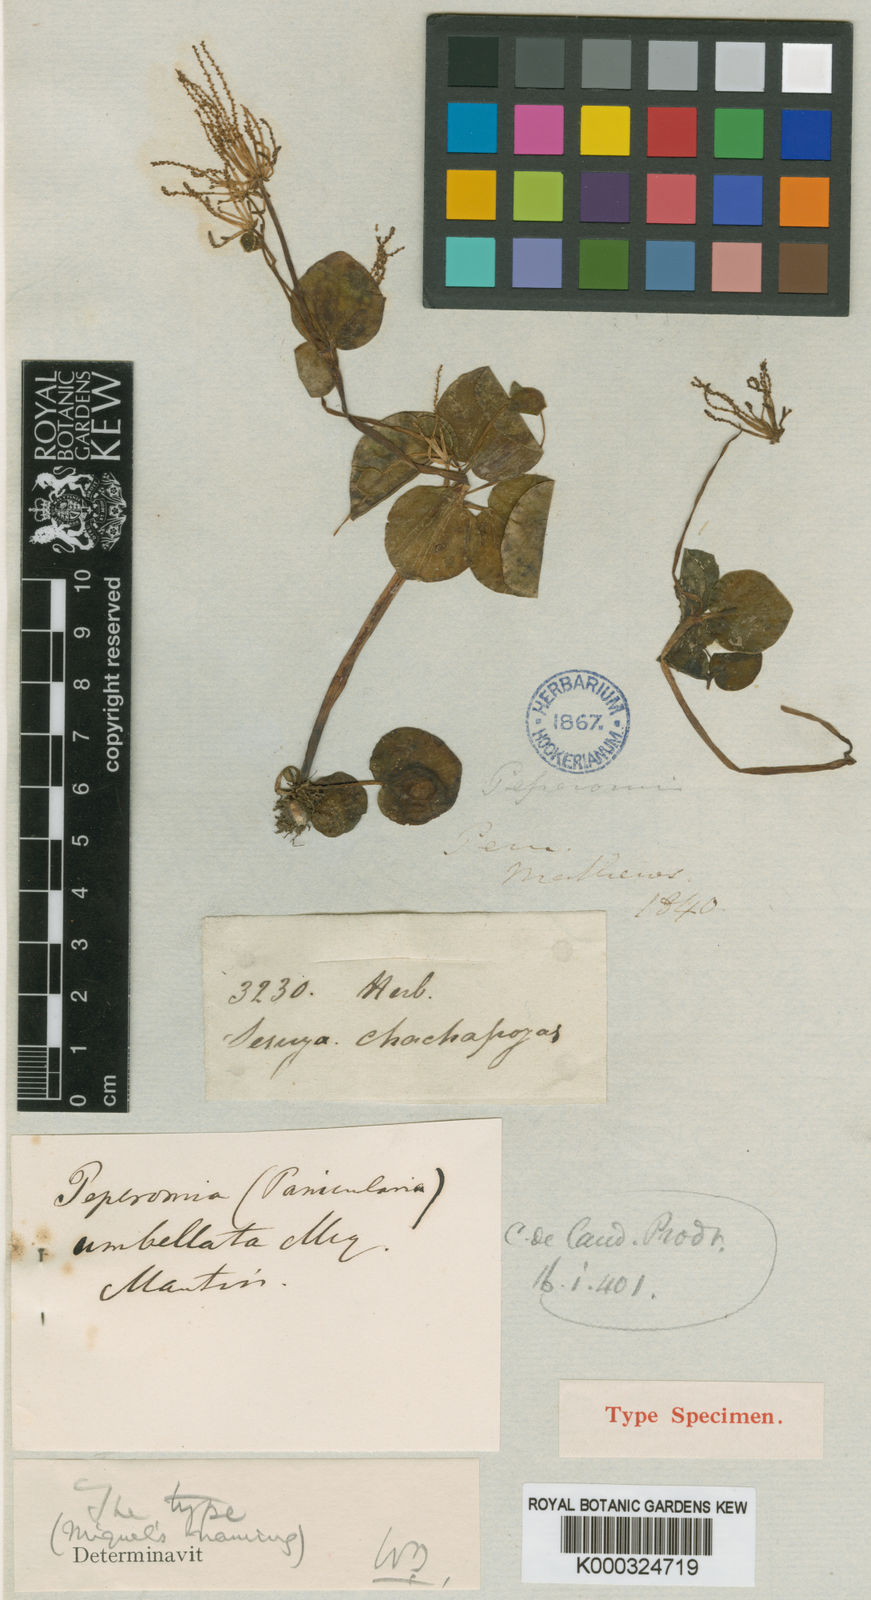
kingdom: Plantae
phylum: Tracheophyta
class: Magnoliopsida
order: Piperales
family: Piperaceae
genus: Peperomia
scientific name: Peperomia mathewsiana
